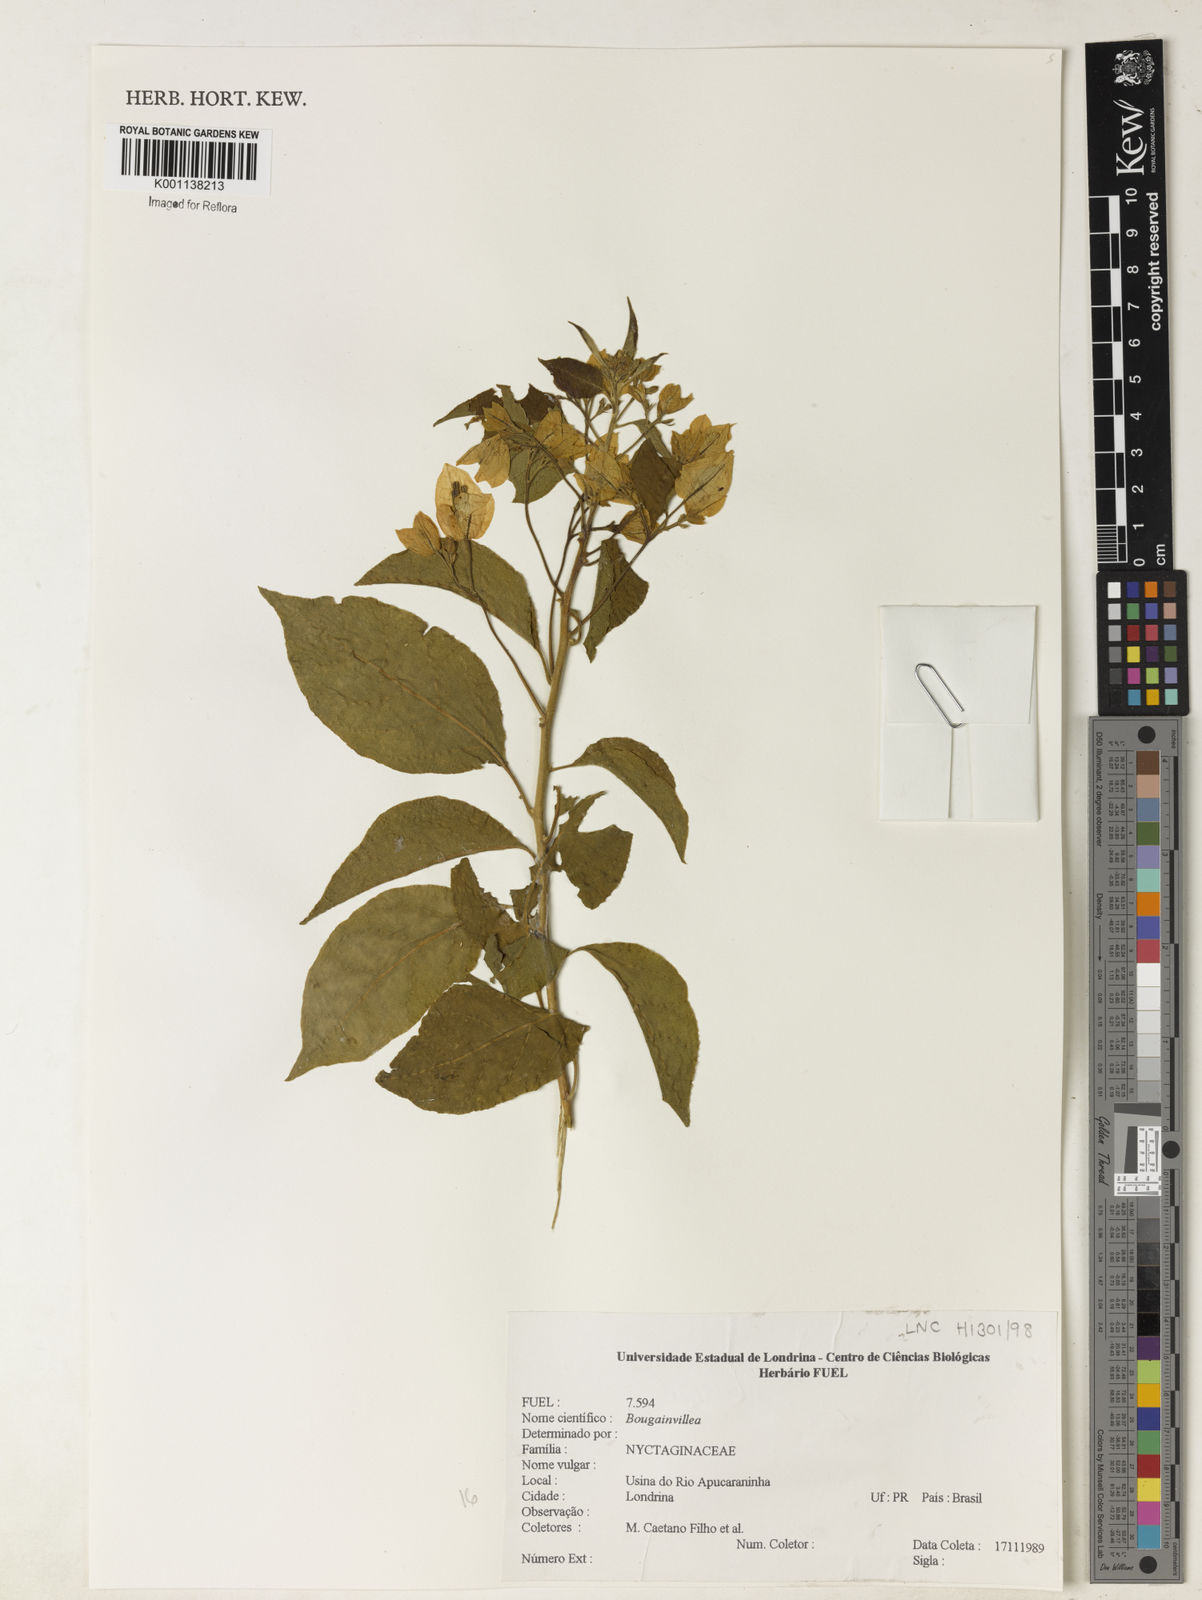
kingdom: Plantae
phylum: Tracheophyta
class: Magnoliopsida
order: Caryophyllales
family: Nyctaginaceae
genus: Bougainvillea
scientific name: Bougainvillea
